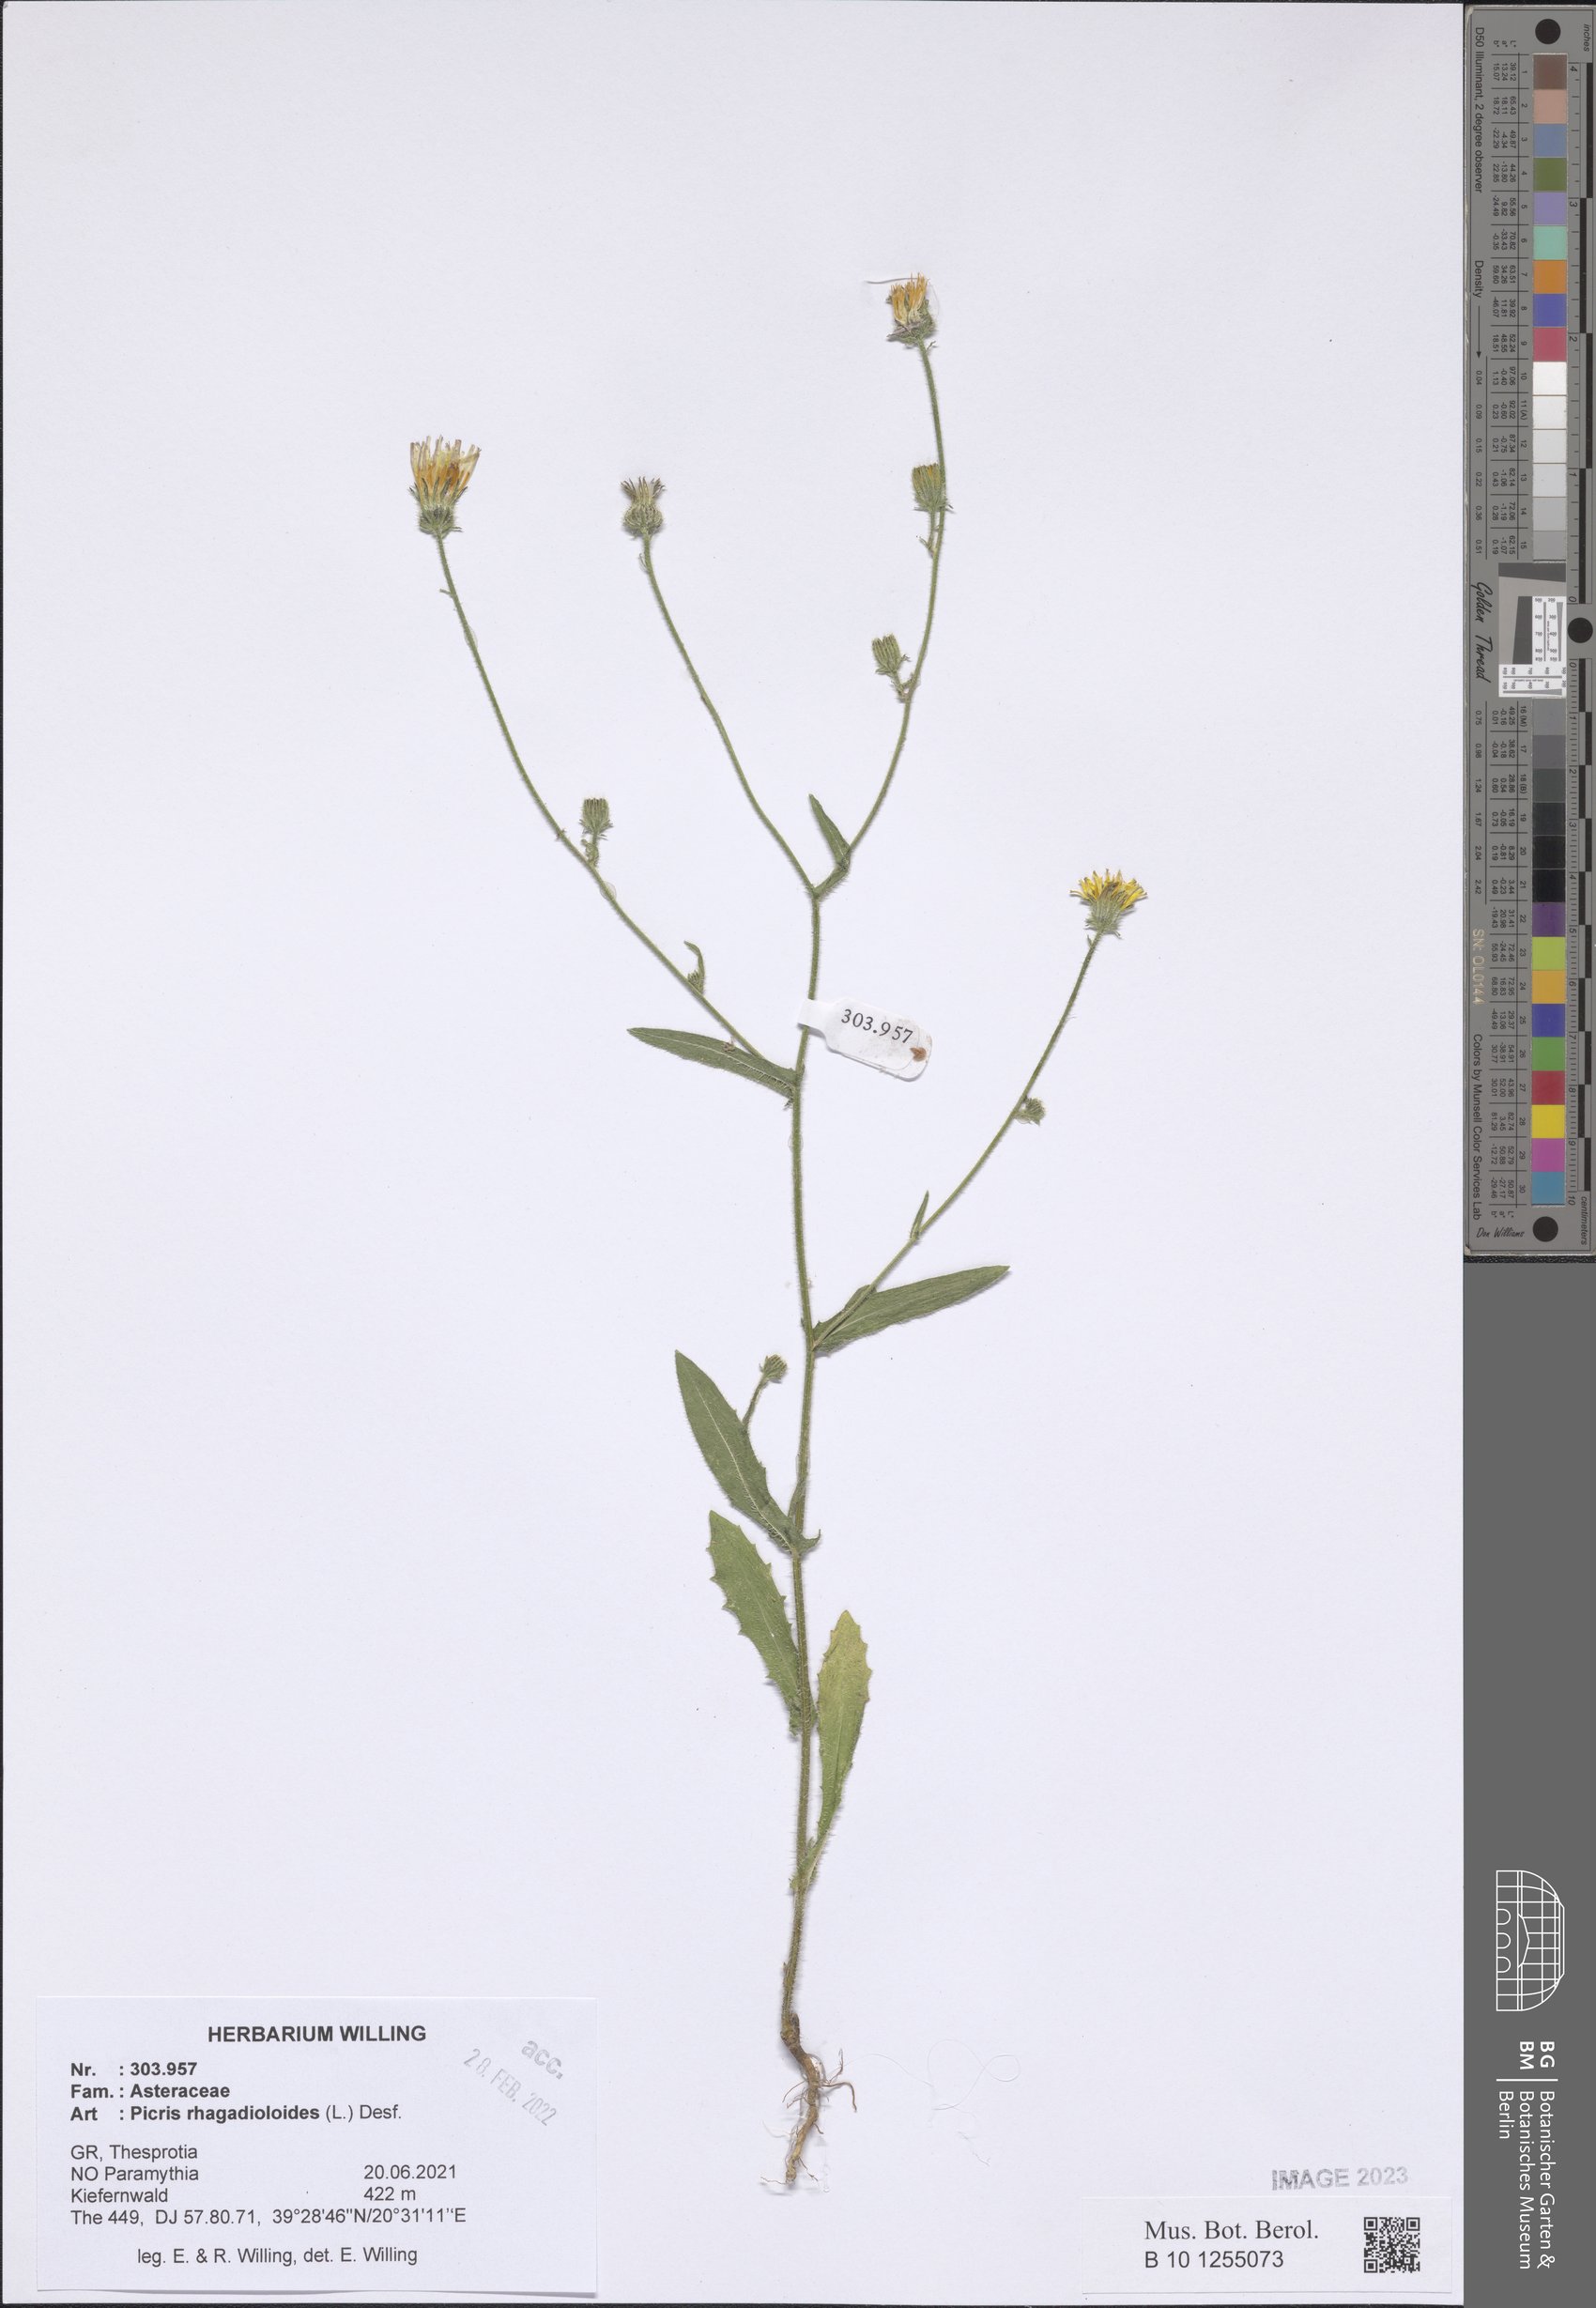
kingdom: Plantae
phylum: Tracheophyta
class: Magnoliopsida
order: Asterales
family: Asteraceae
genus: Picris
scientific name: Picris rhagadioloides
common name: Oxtongue
